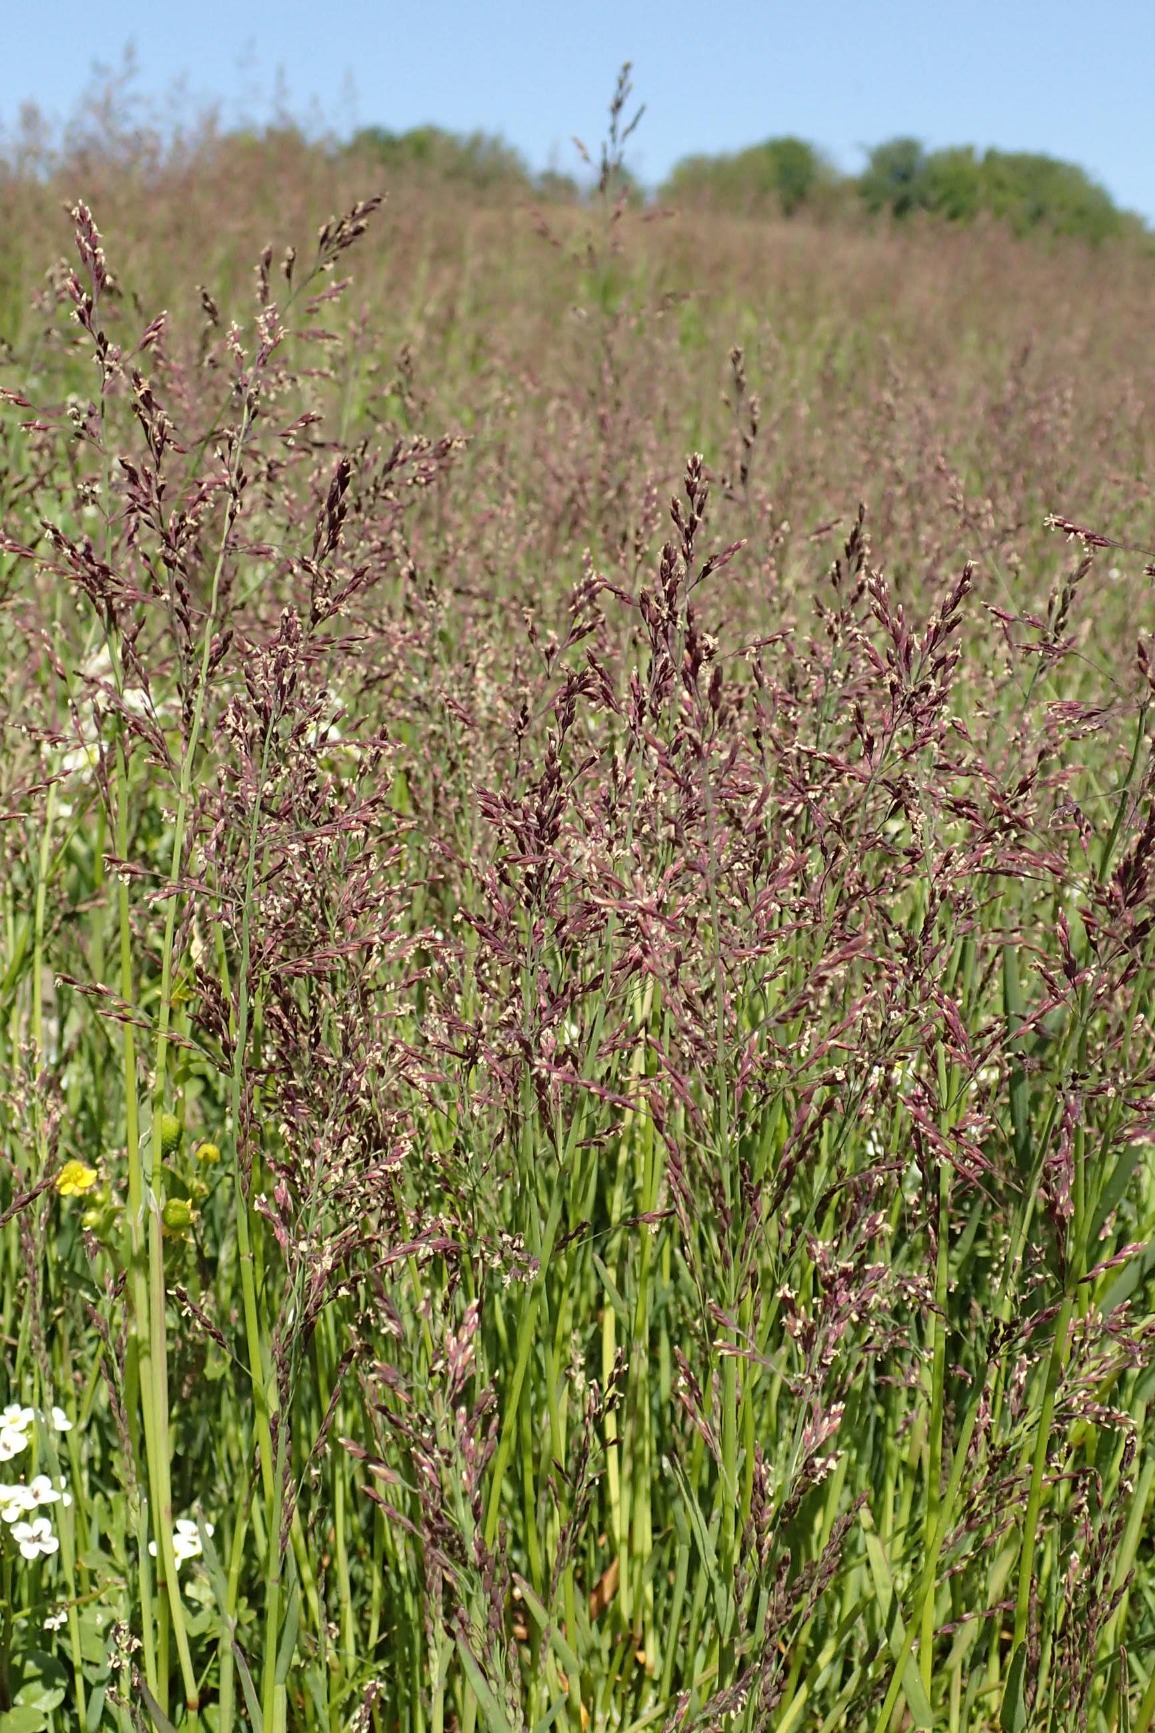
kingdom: Plantae
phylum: Tracheophyta
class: Liliopsida
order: Poales
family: Poaceae
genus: Catabrosa
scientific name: Catabrosa aquatica
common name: Tæppegræs
